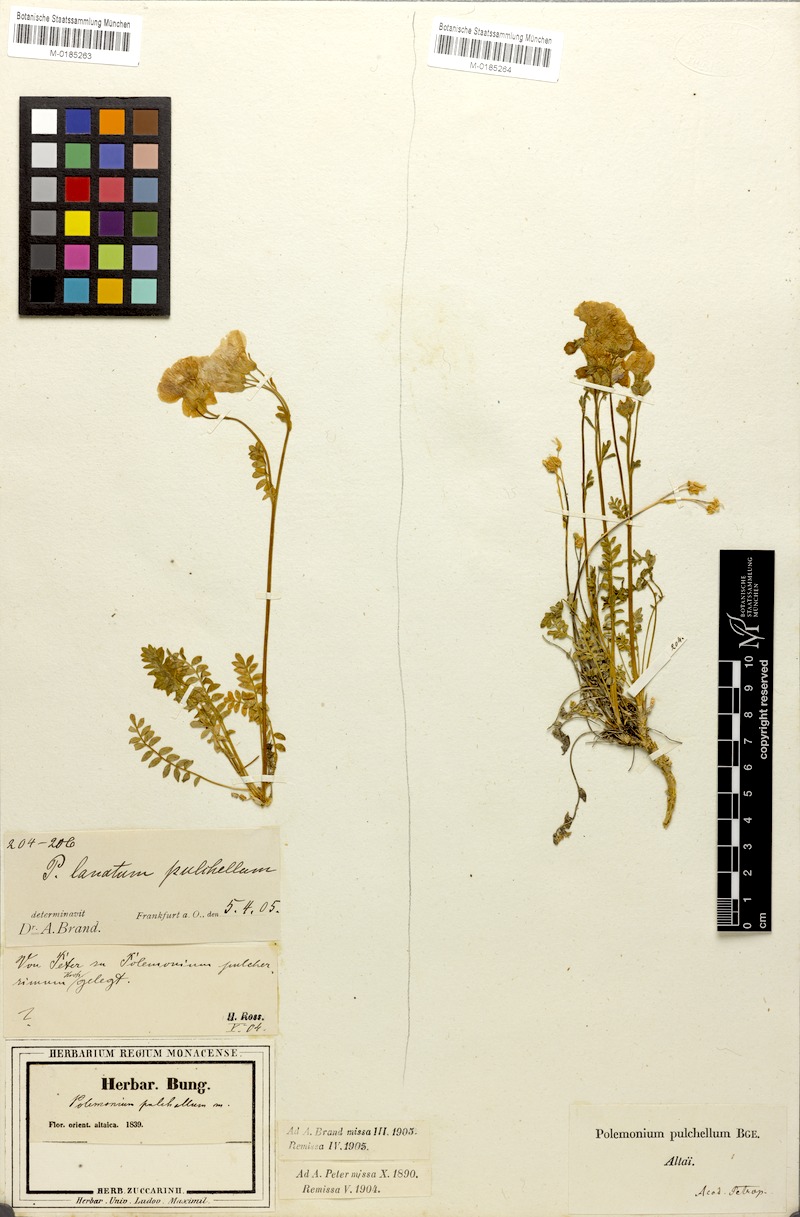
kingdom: Plantae
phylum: Tracheophyta
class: Magnoliopsida
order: Ericales
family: Polemoniaceae
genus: Polemonium
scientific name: Polemonium pulchellum
